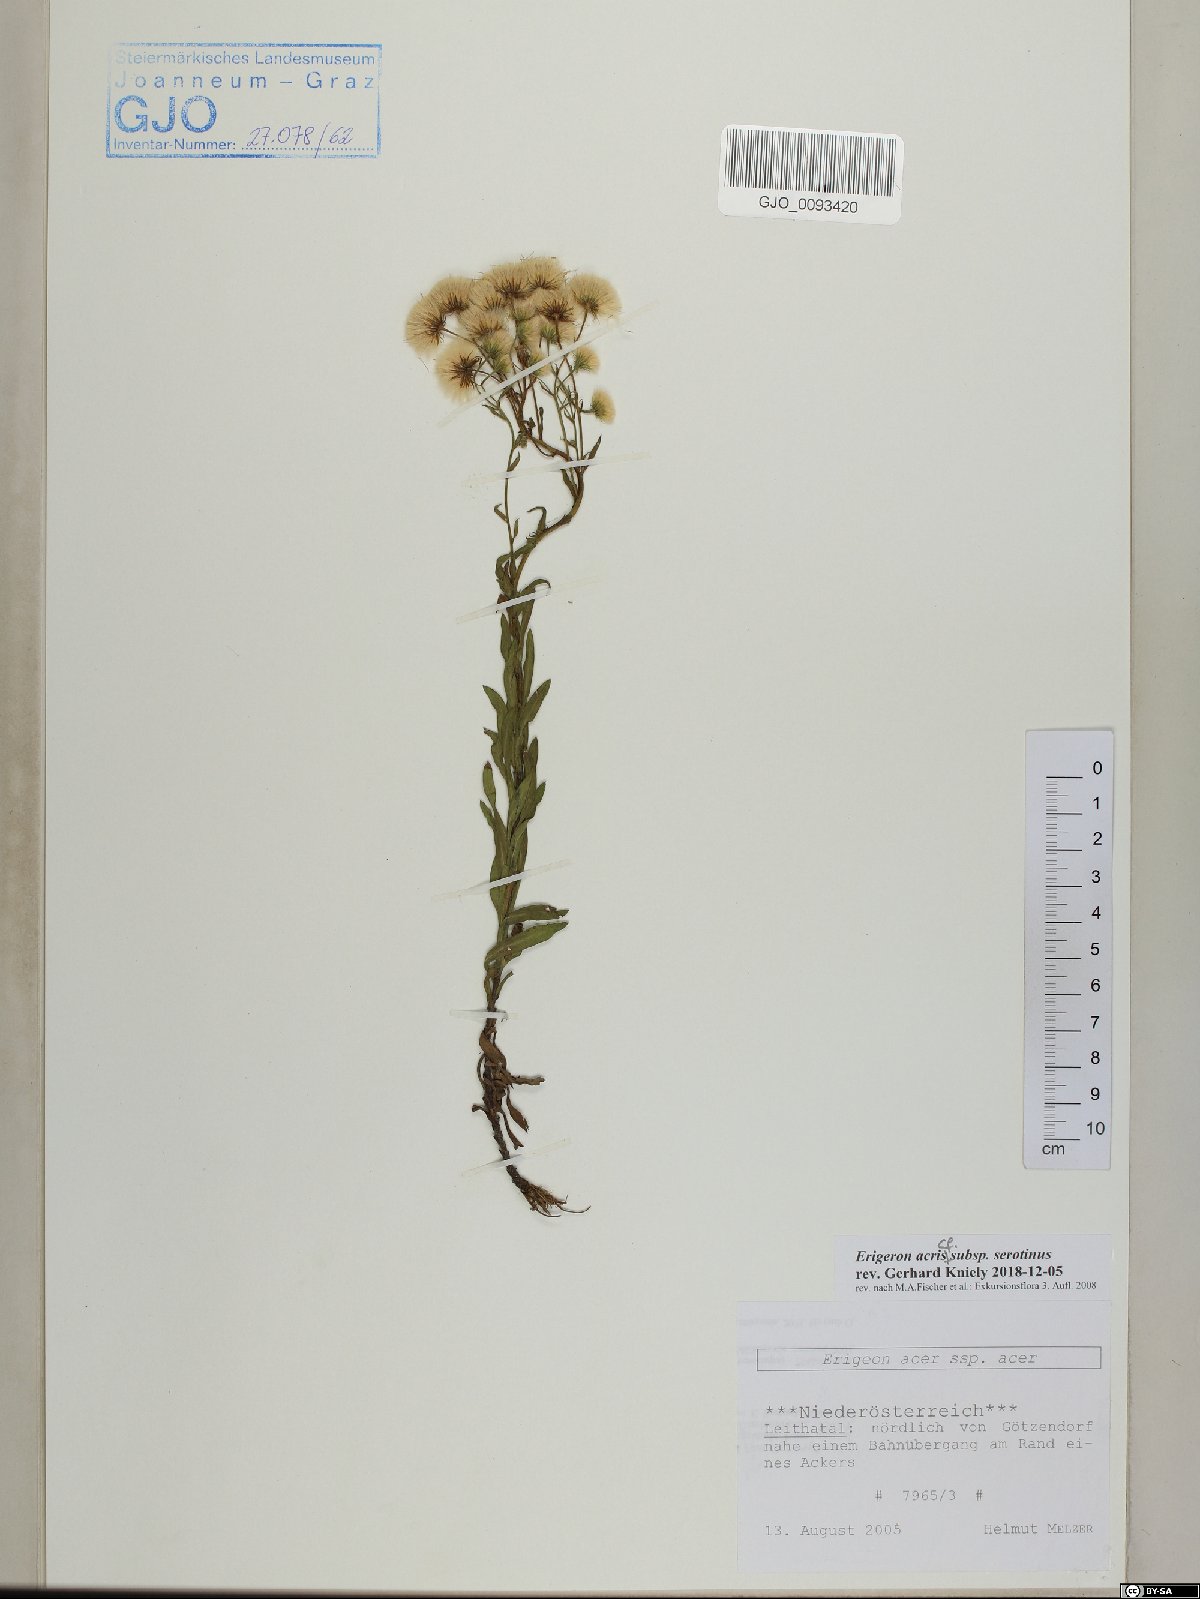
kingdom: Plantae
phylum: Tracheophyta
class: Magnoliopsida
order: Asterales
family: Asteraceae
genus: Erigeron
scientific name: Erigeron muralis
